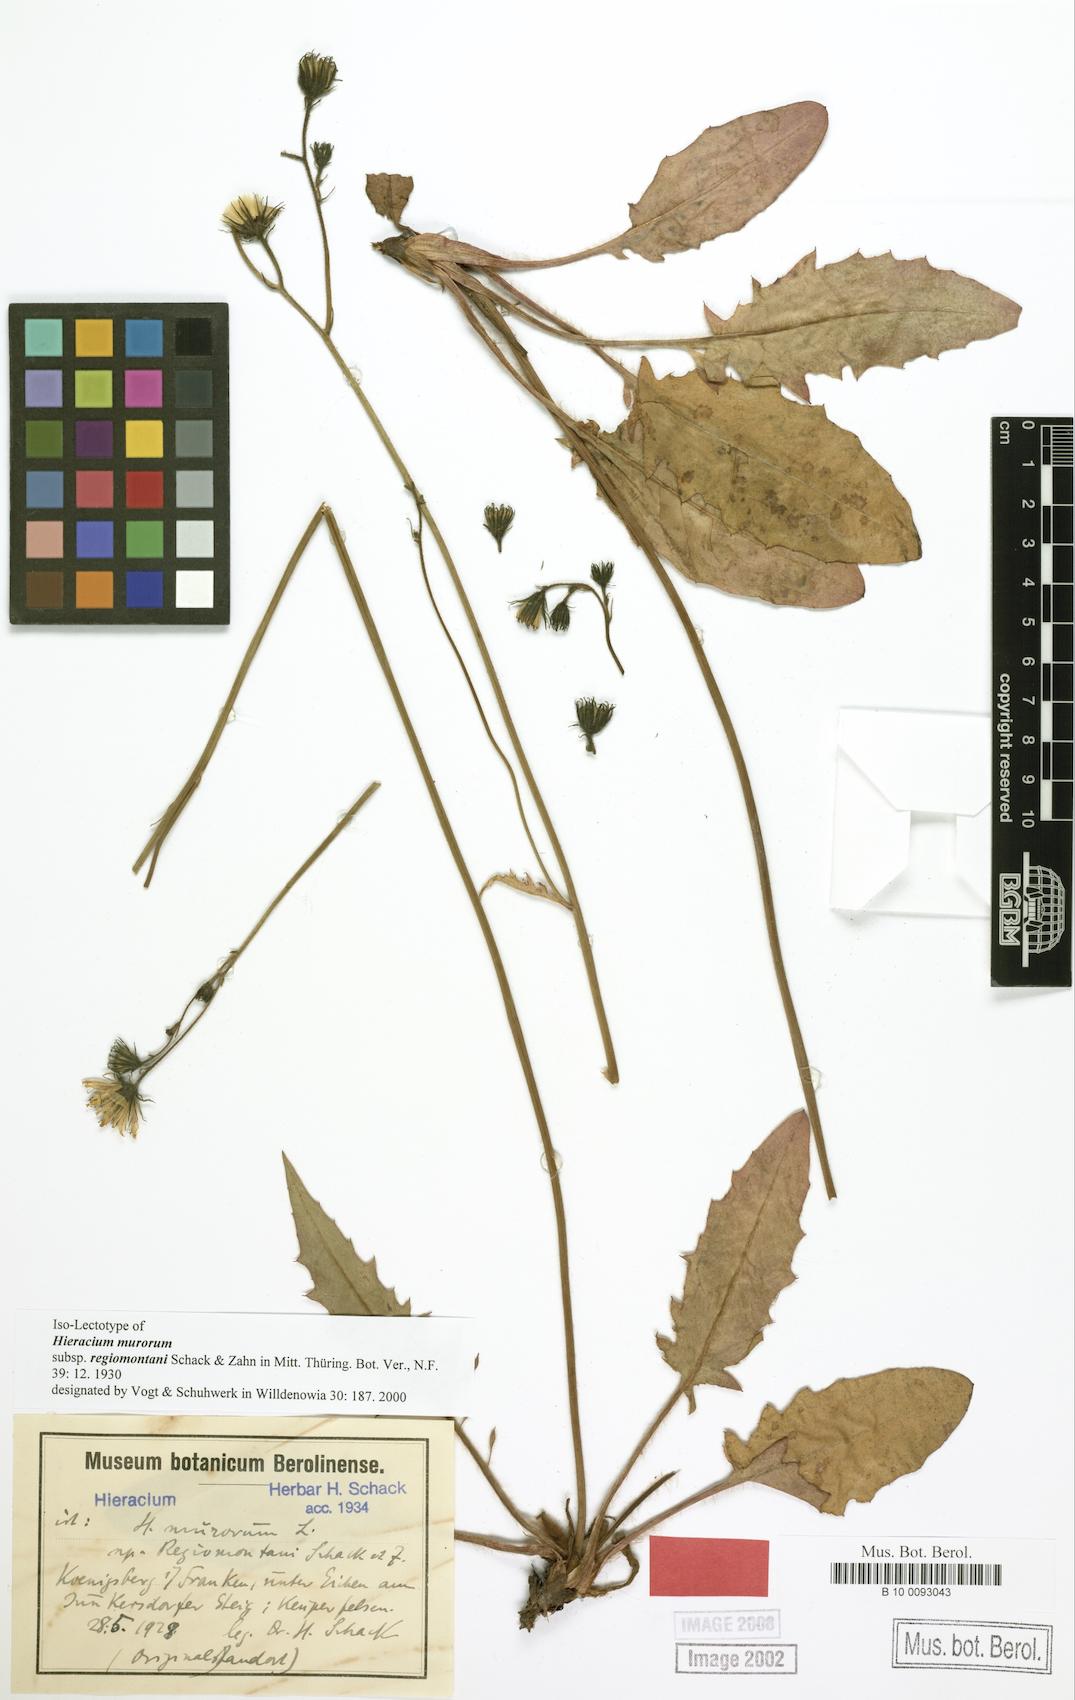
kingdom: Plantae
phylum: Tracheophyta
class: Magnoliopsida
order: Asterales
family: Asteraceae
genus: Hieracium
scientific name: Hieracium murorum
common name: Wall hawkweed
